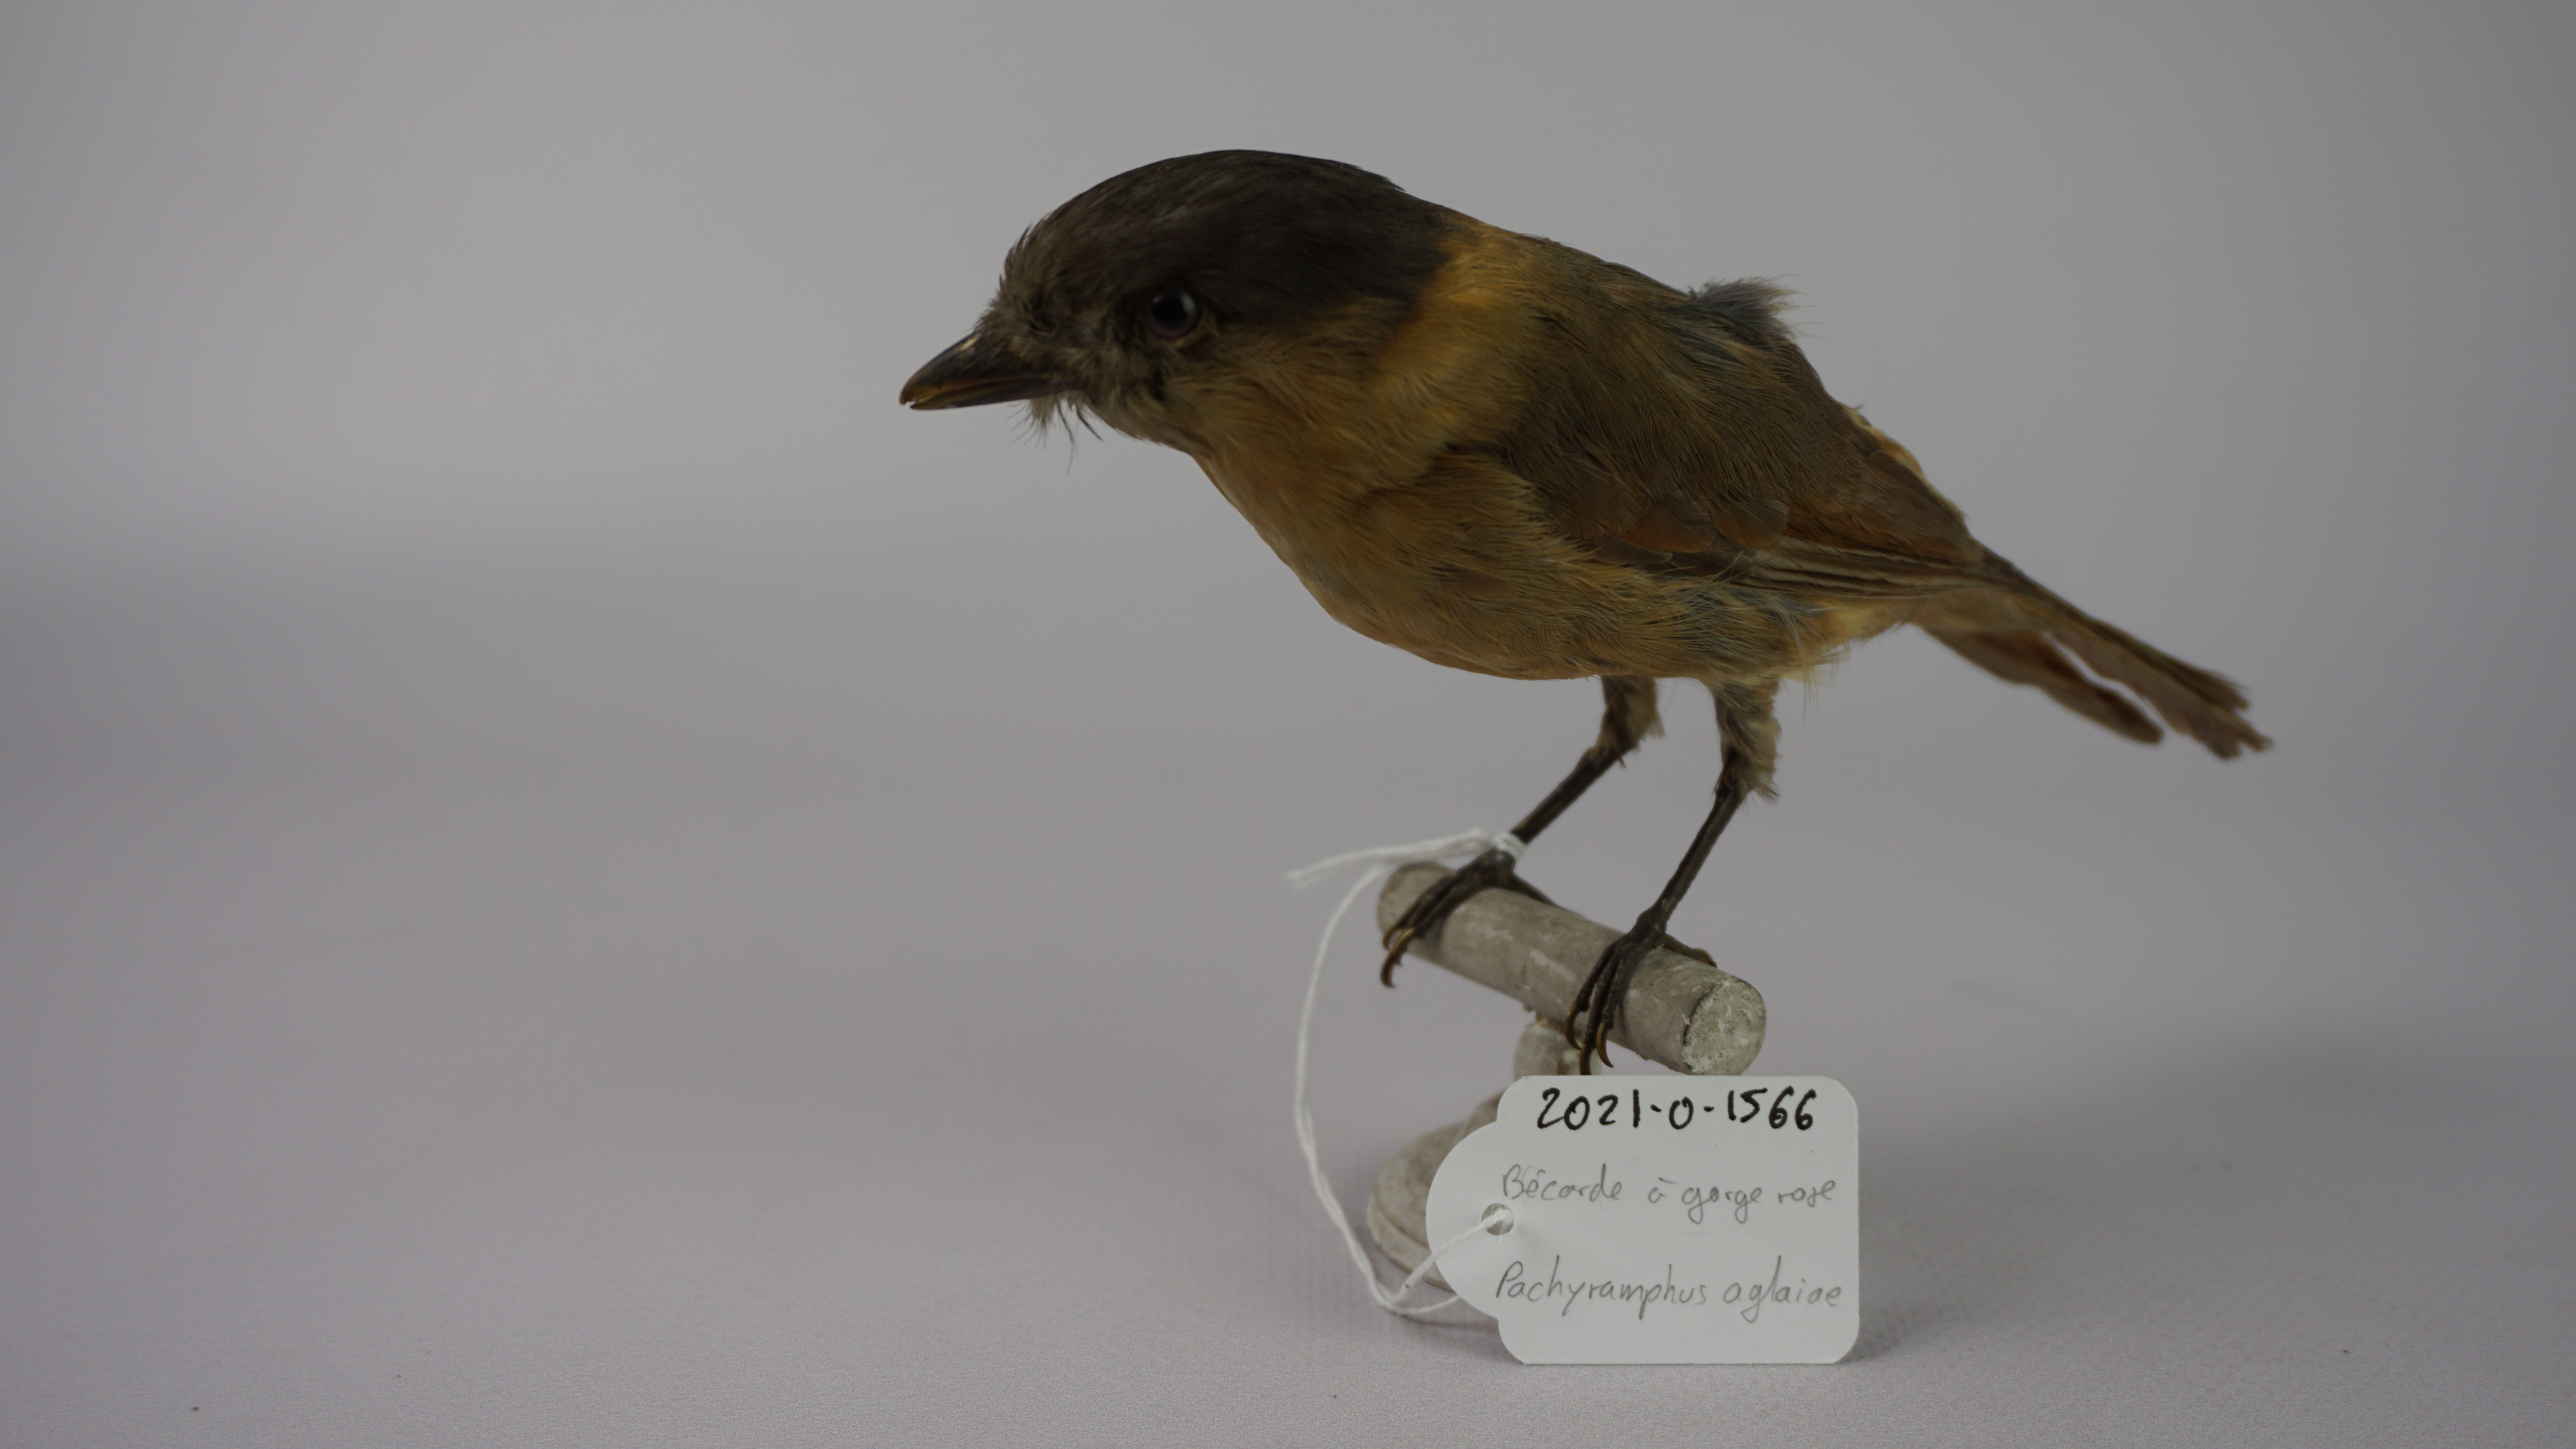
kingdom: Animalia
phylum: Chordata
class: Aves
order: Passeriformes
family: Cotingidae
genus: Pachyramphus
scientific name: Pachyramphus aglaiae
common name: Rose-throated becard
